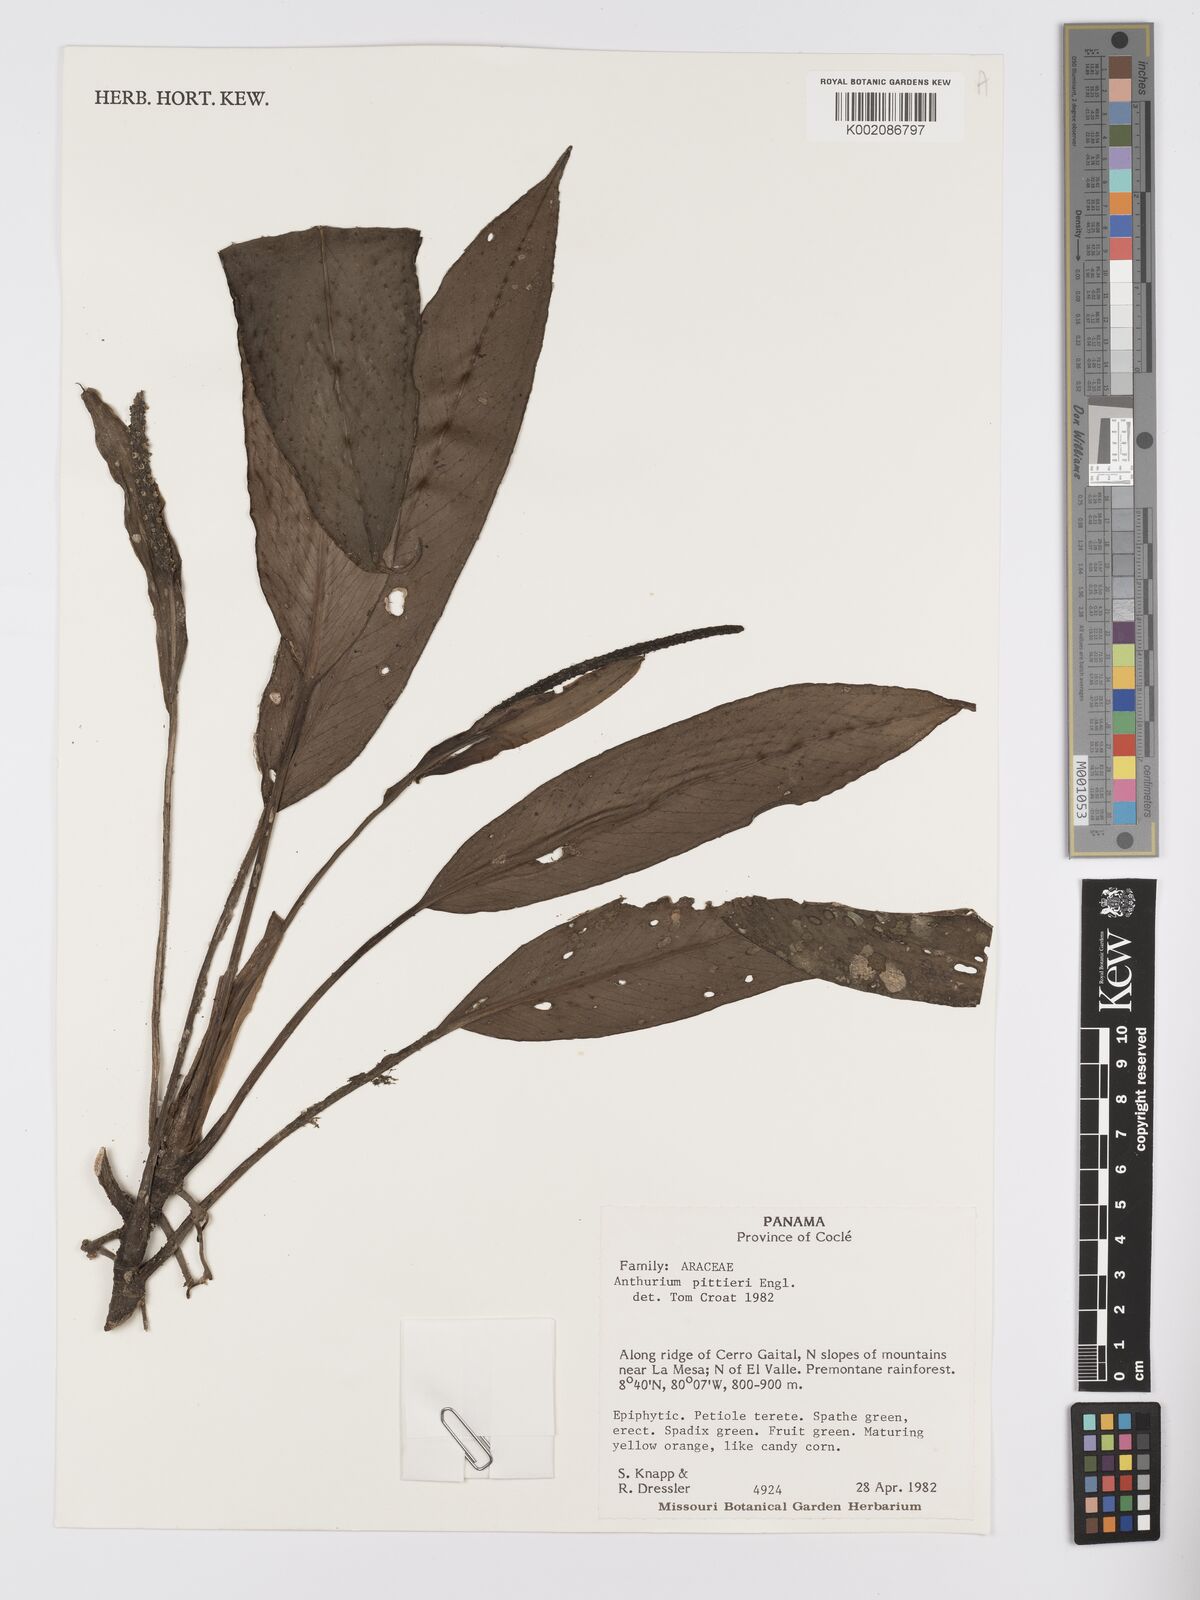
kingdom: Plantae
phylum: Tracheophyta
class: Liliopsida
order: Alismatales
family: Araceae
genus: Anthurium
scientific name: Anthurium pittieri
